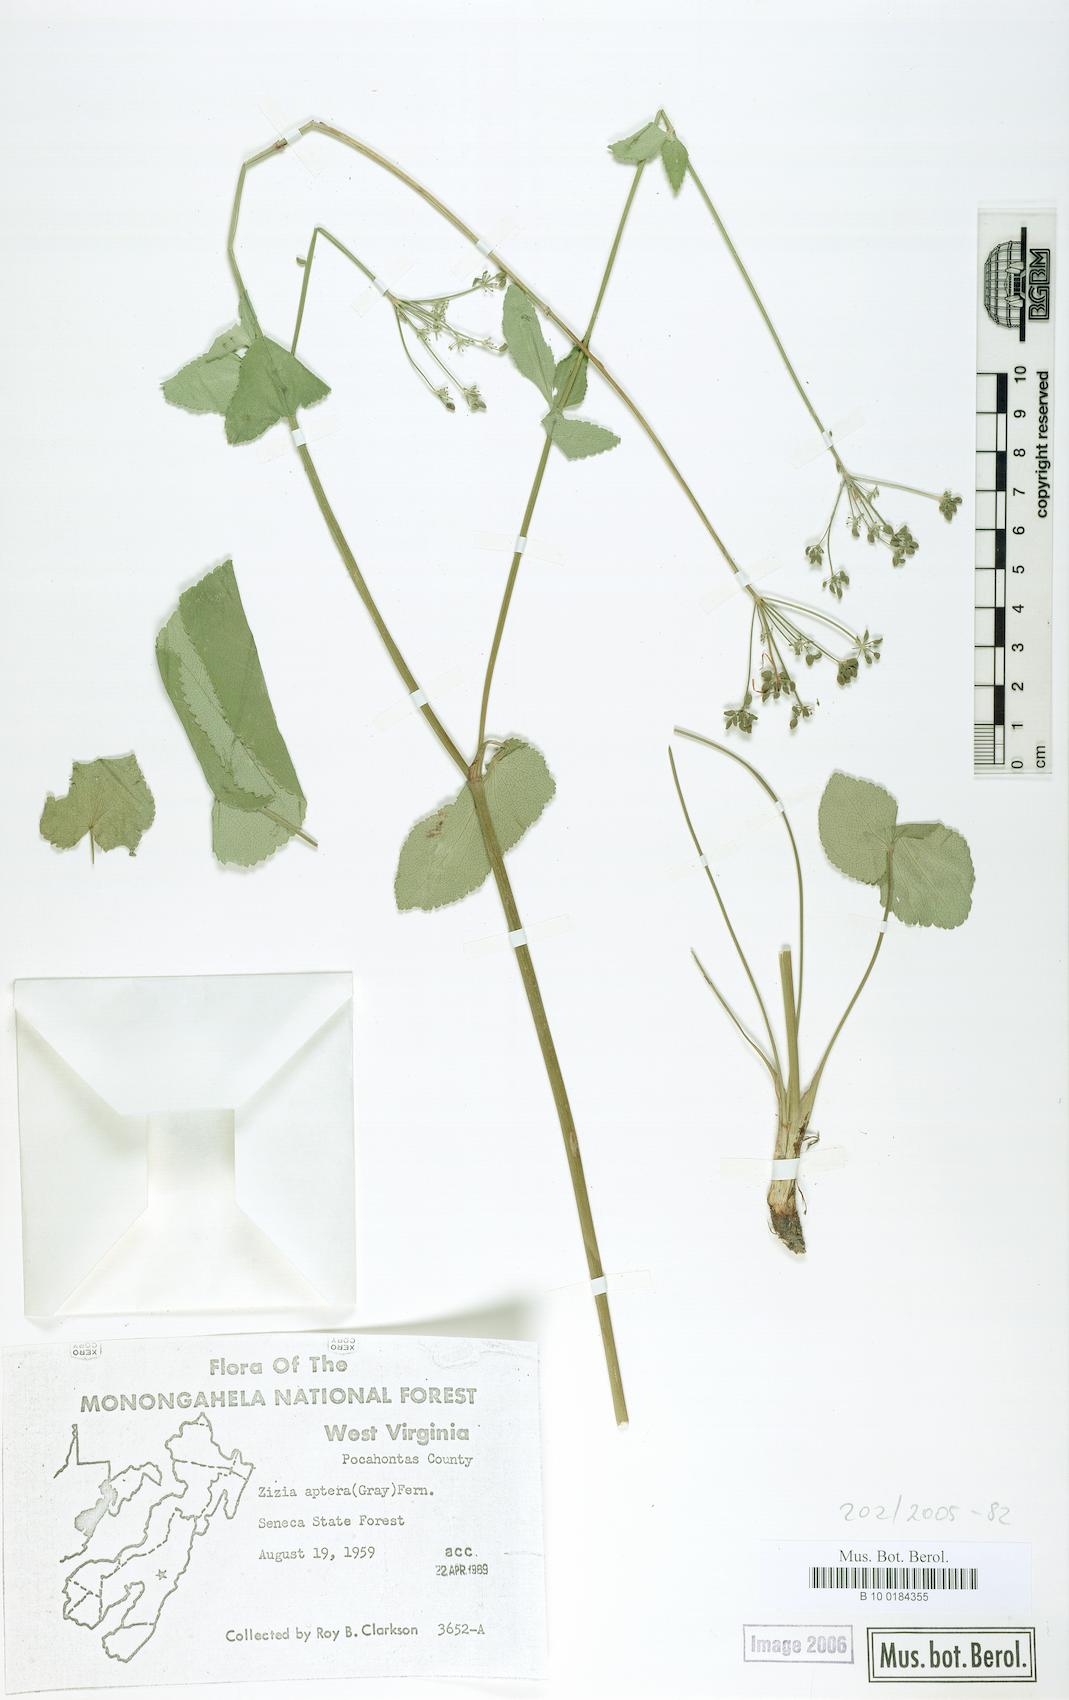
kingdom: Plantae
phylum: Tracheophyta
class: Magnoliopsida
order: Apiales
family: Apiaceae
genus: Zizia
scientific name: Zizia aptera
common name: Heart-leaved alexanders
